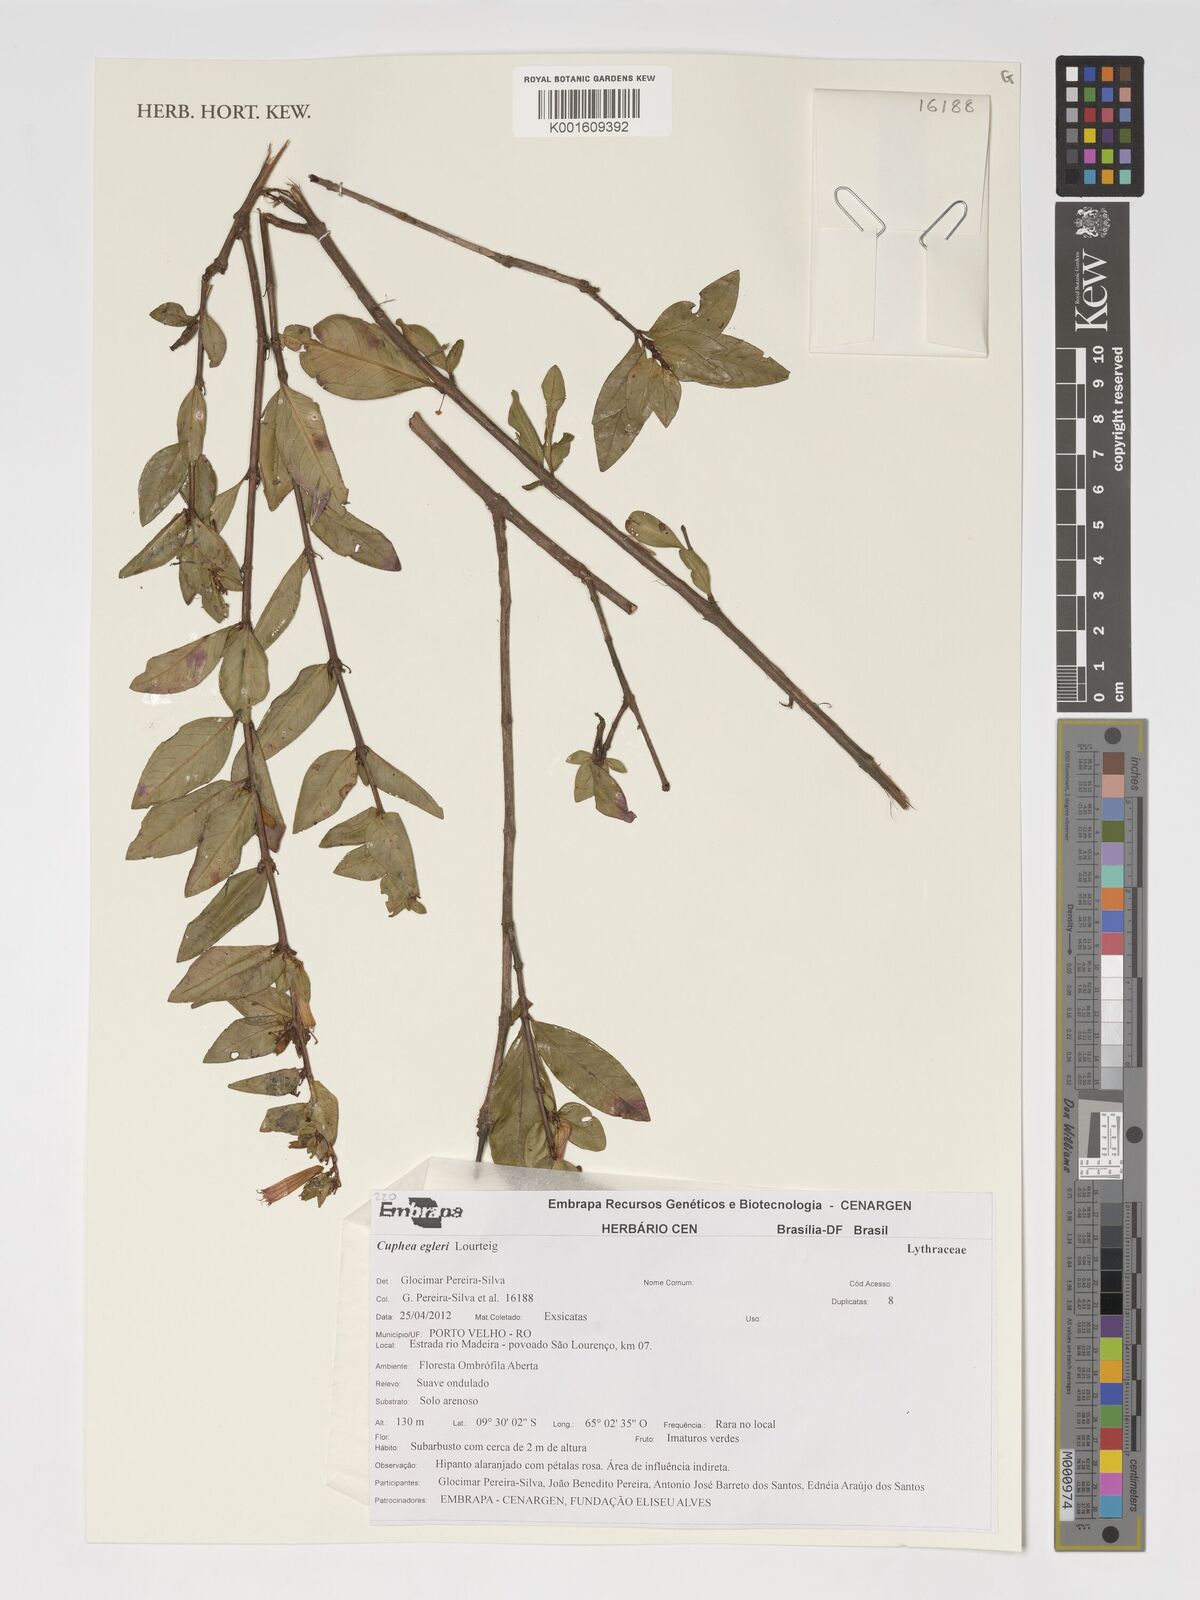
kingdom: Plantae
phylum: Tracheophyta
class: Magnoliopsida
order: Myrtales
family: Lythraceae
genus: Cuphea
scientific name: Cuphea egleri
